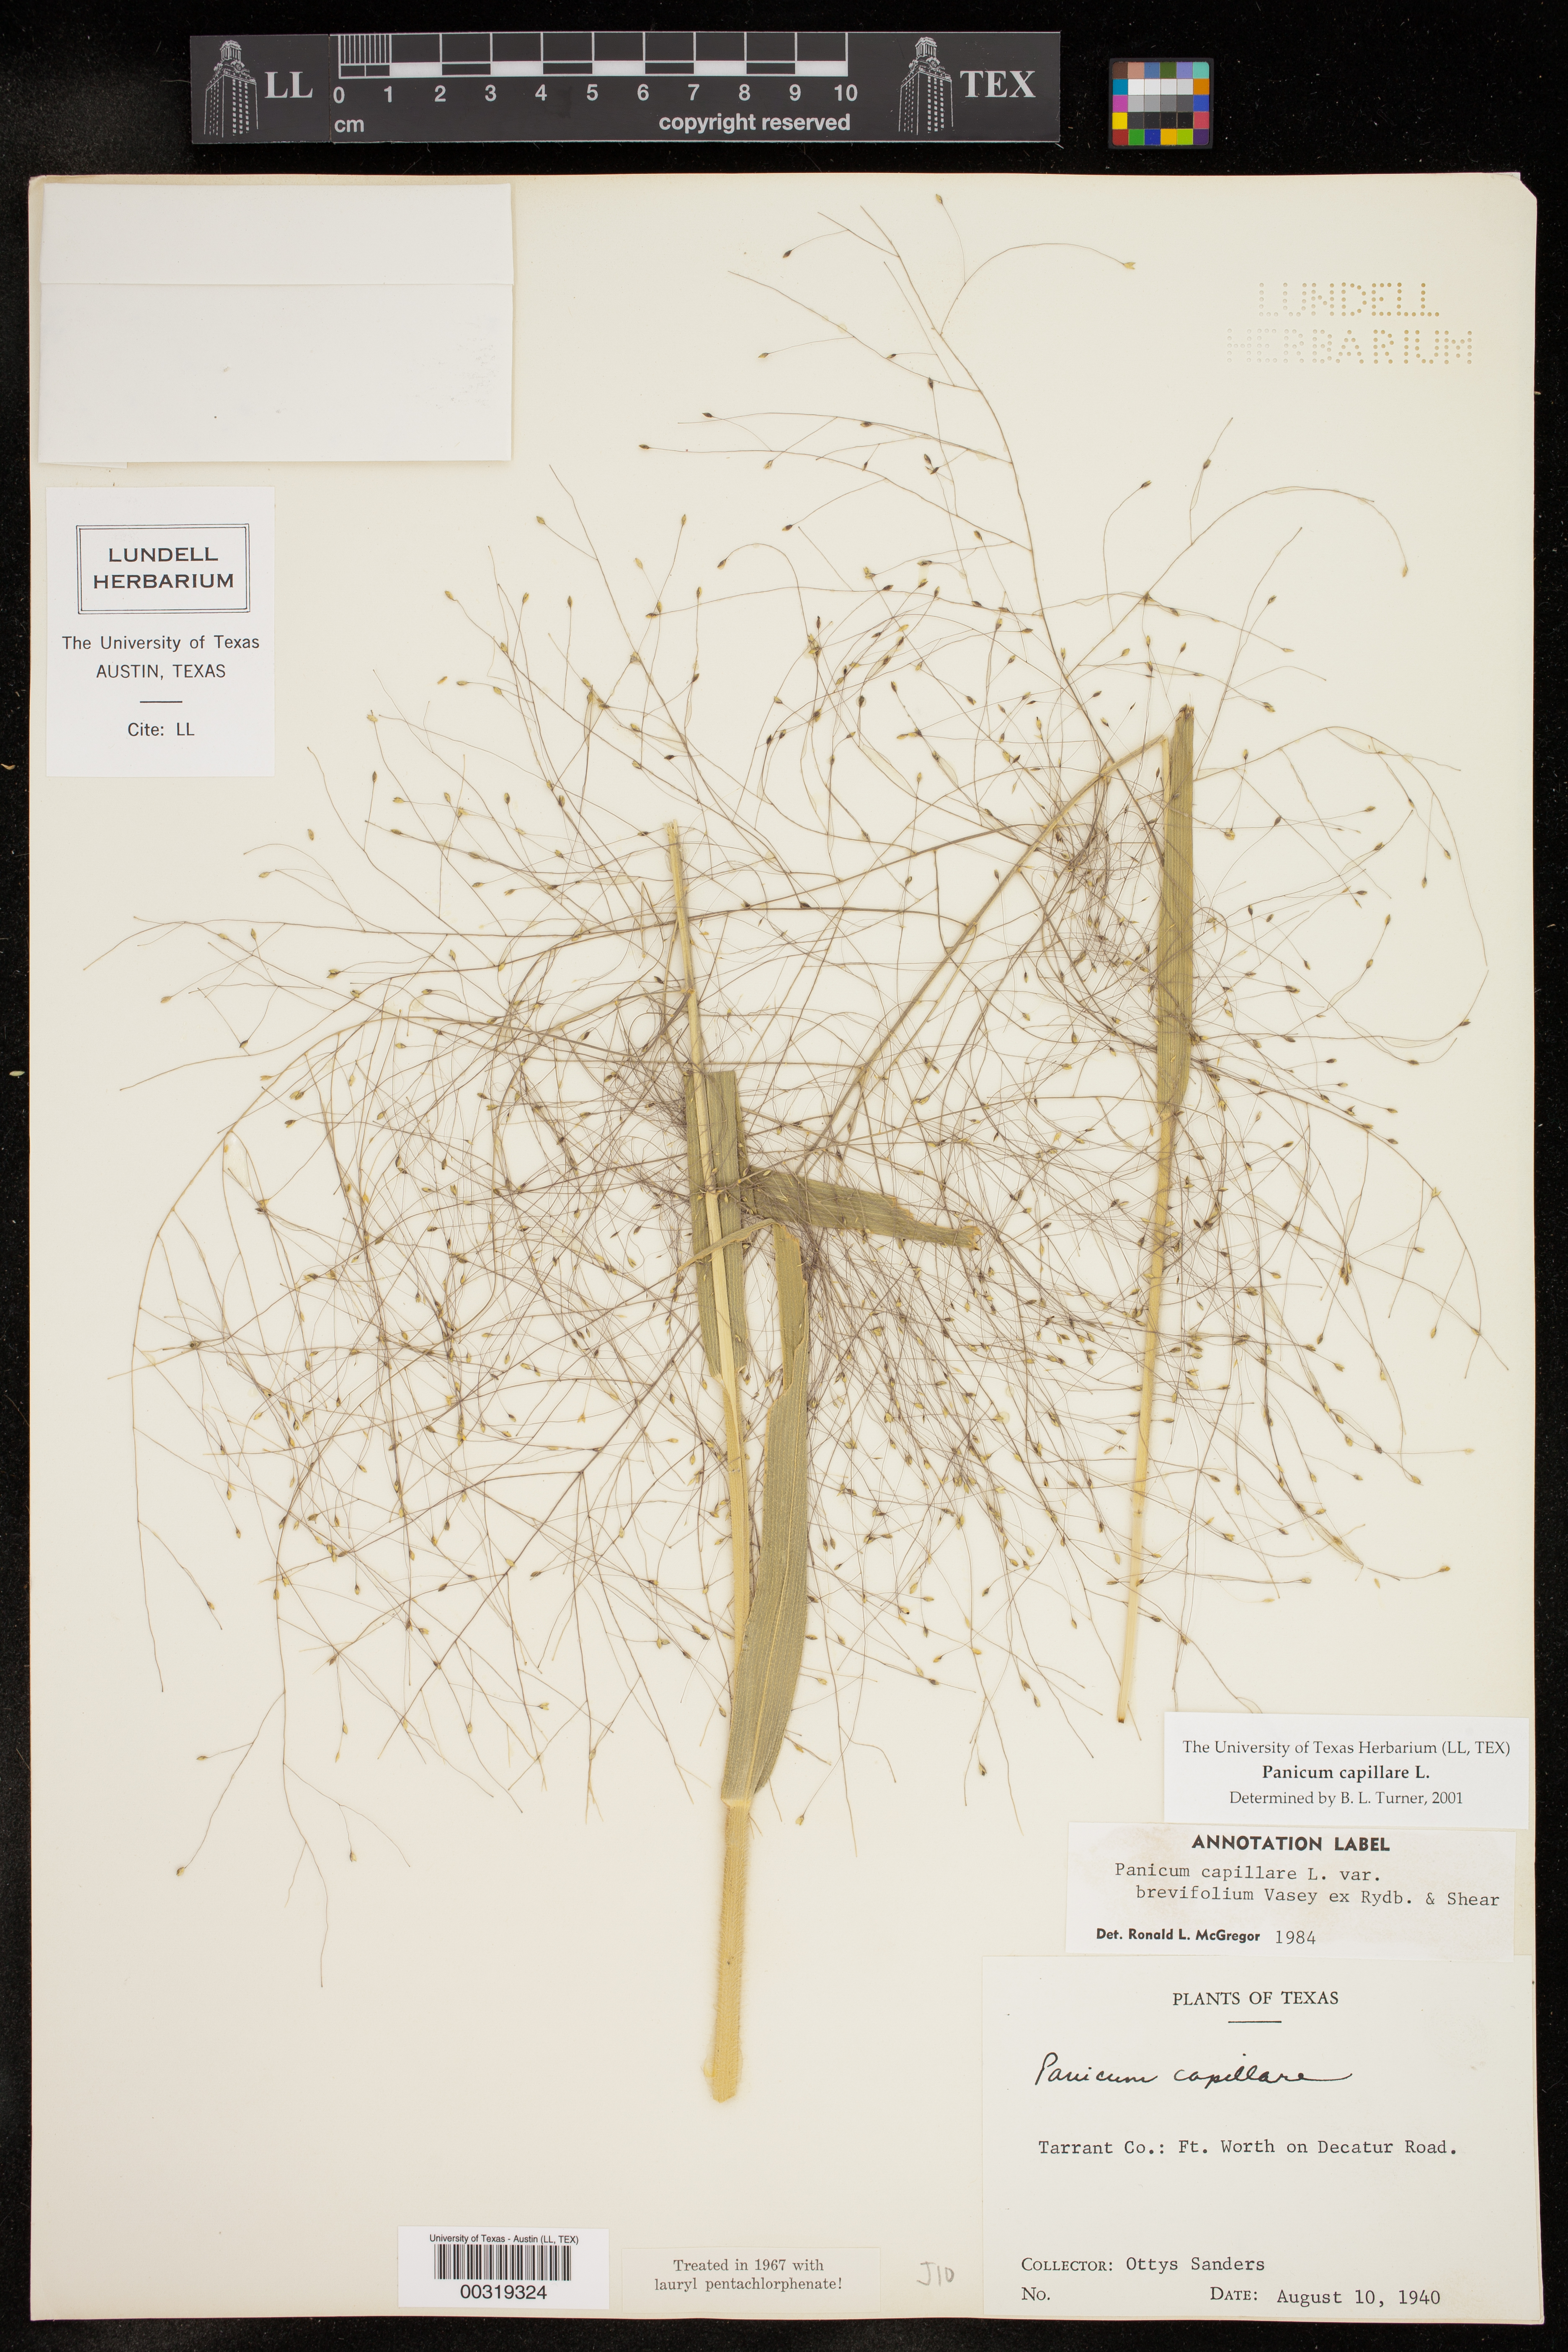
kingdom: Plantae
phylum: Tracheophyta
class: Liliopsida
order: Poales
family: Poaceae
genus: Panicum
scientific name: Panicum capillare
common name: Witch-grass
